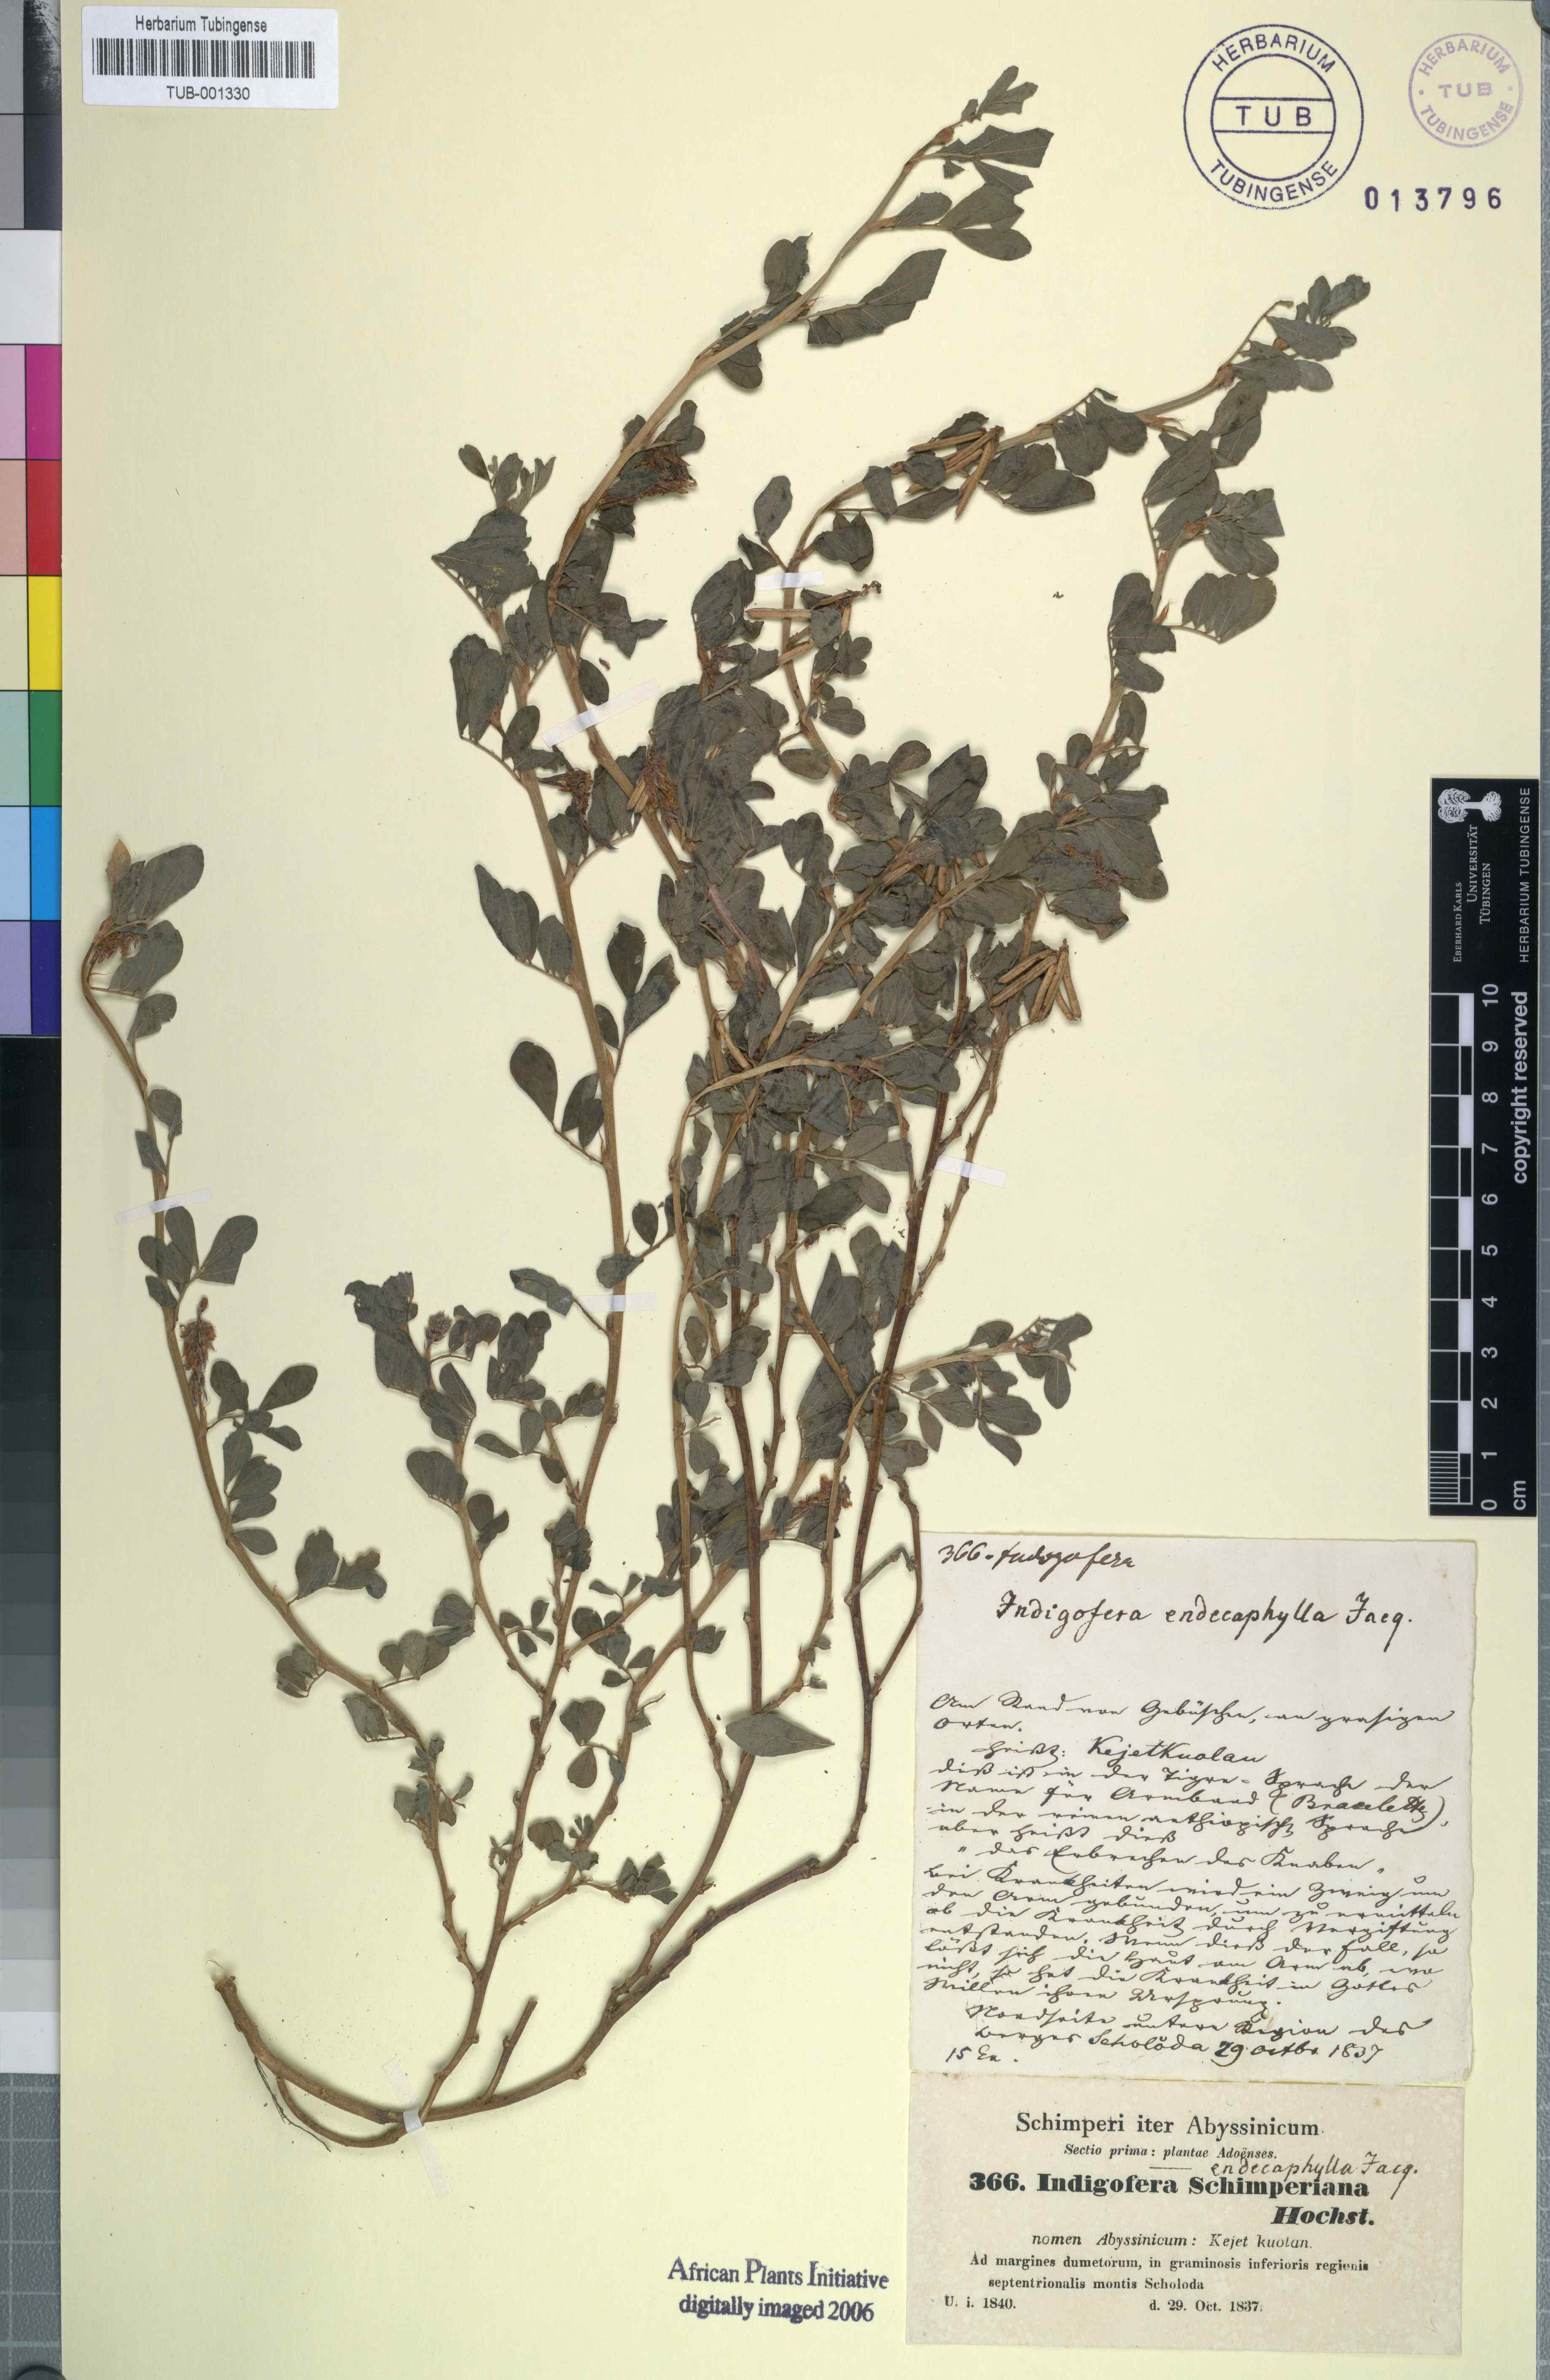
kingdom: Plantae
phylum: Tracheophyta
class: Magnoliopsida
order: Fabales
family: Fabaceae
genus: Indigofera
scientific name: Indigofera hendecaphylla
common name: Trailing indigo
